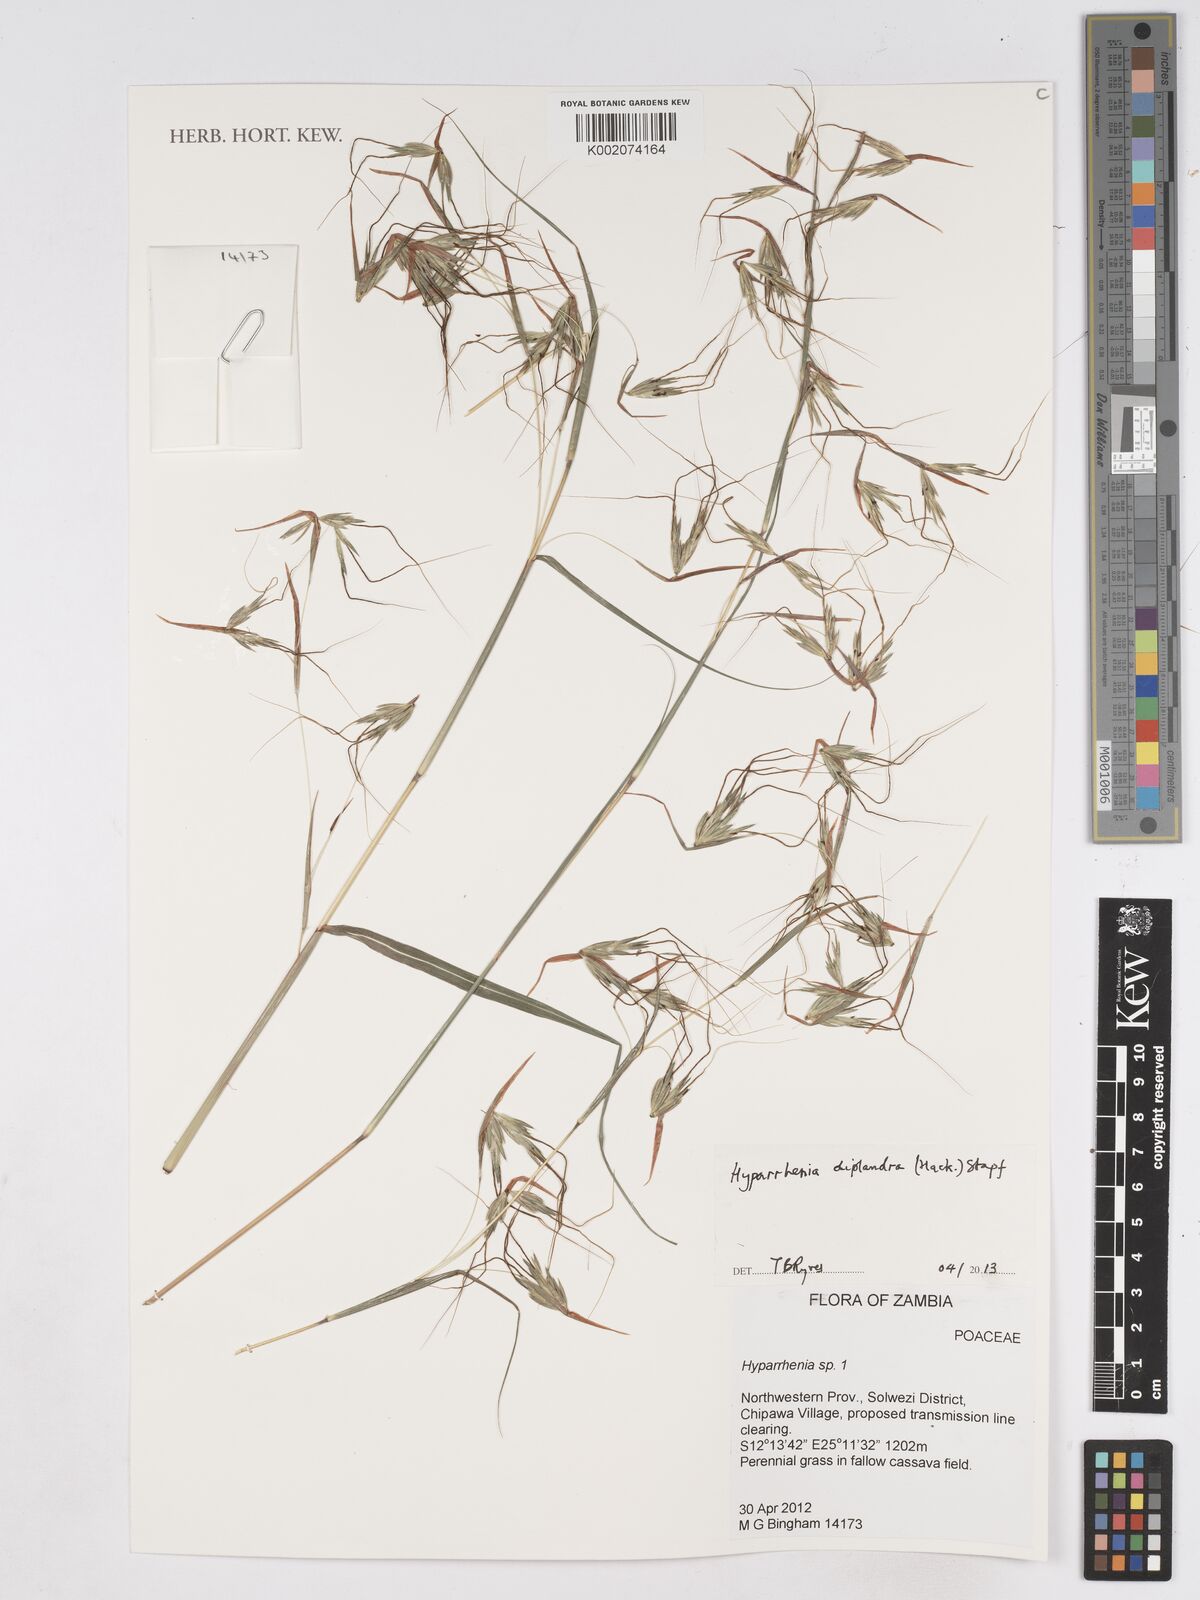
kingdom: Plantae
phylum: Tracheophyta
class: Liliopsida
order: Poales
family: Poaceae
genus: Hyparrhenia
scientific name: Hyparrhenia diplandra
